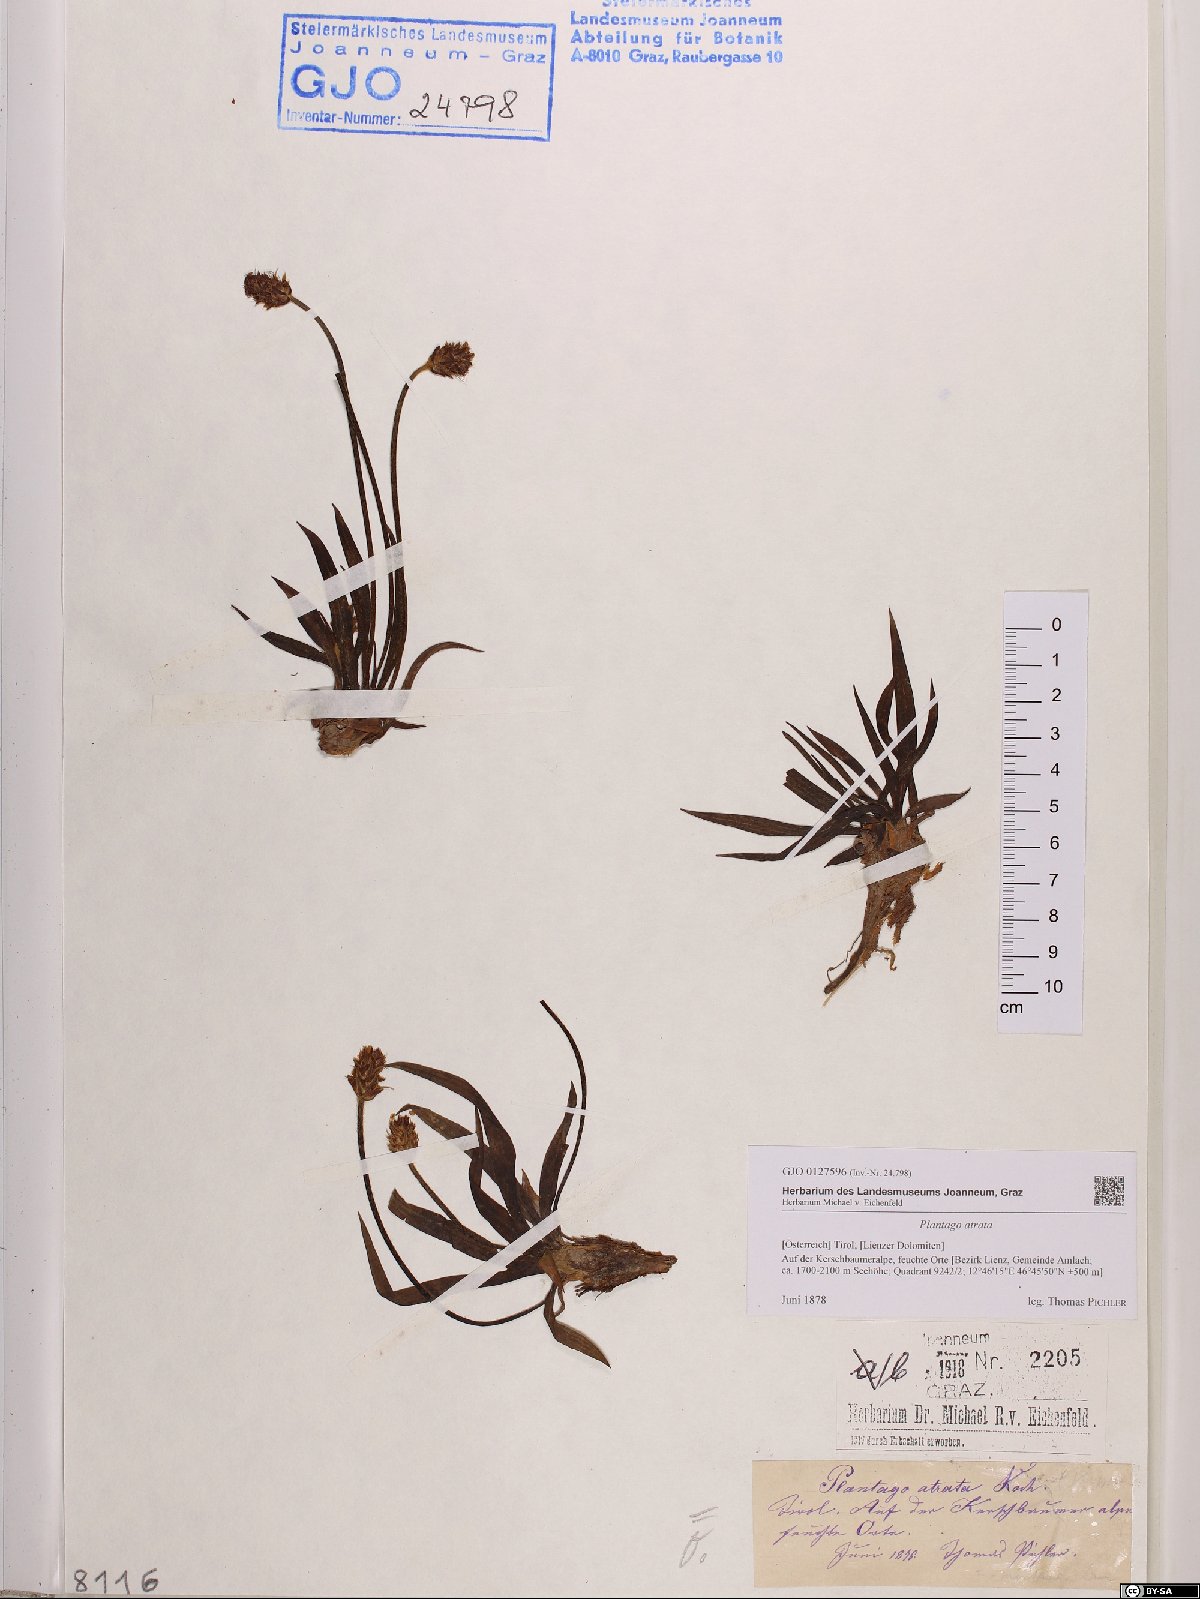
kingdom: Plantae
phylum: Tracheophyta
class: Magnoliopsida
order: Lamiales
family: Plantaginaceae
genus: Plantago
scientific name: Plantago atrata
